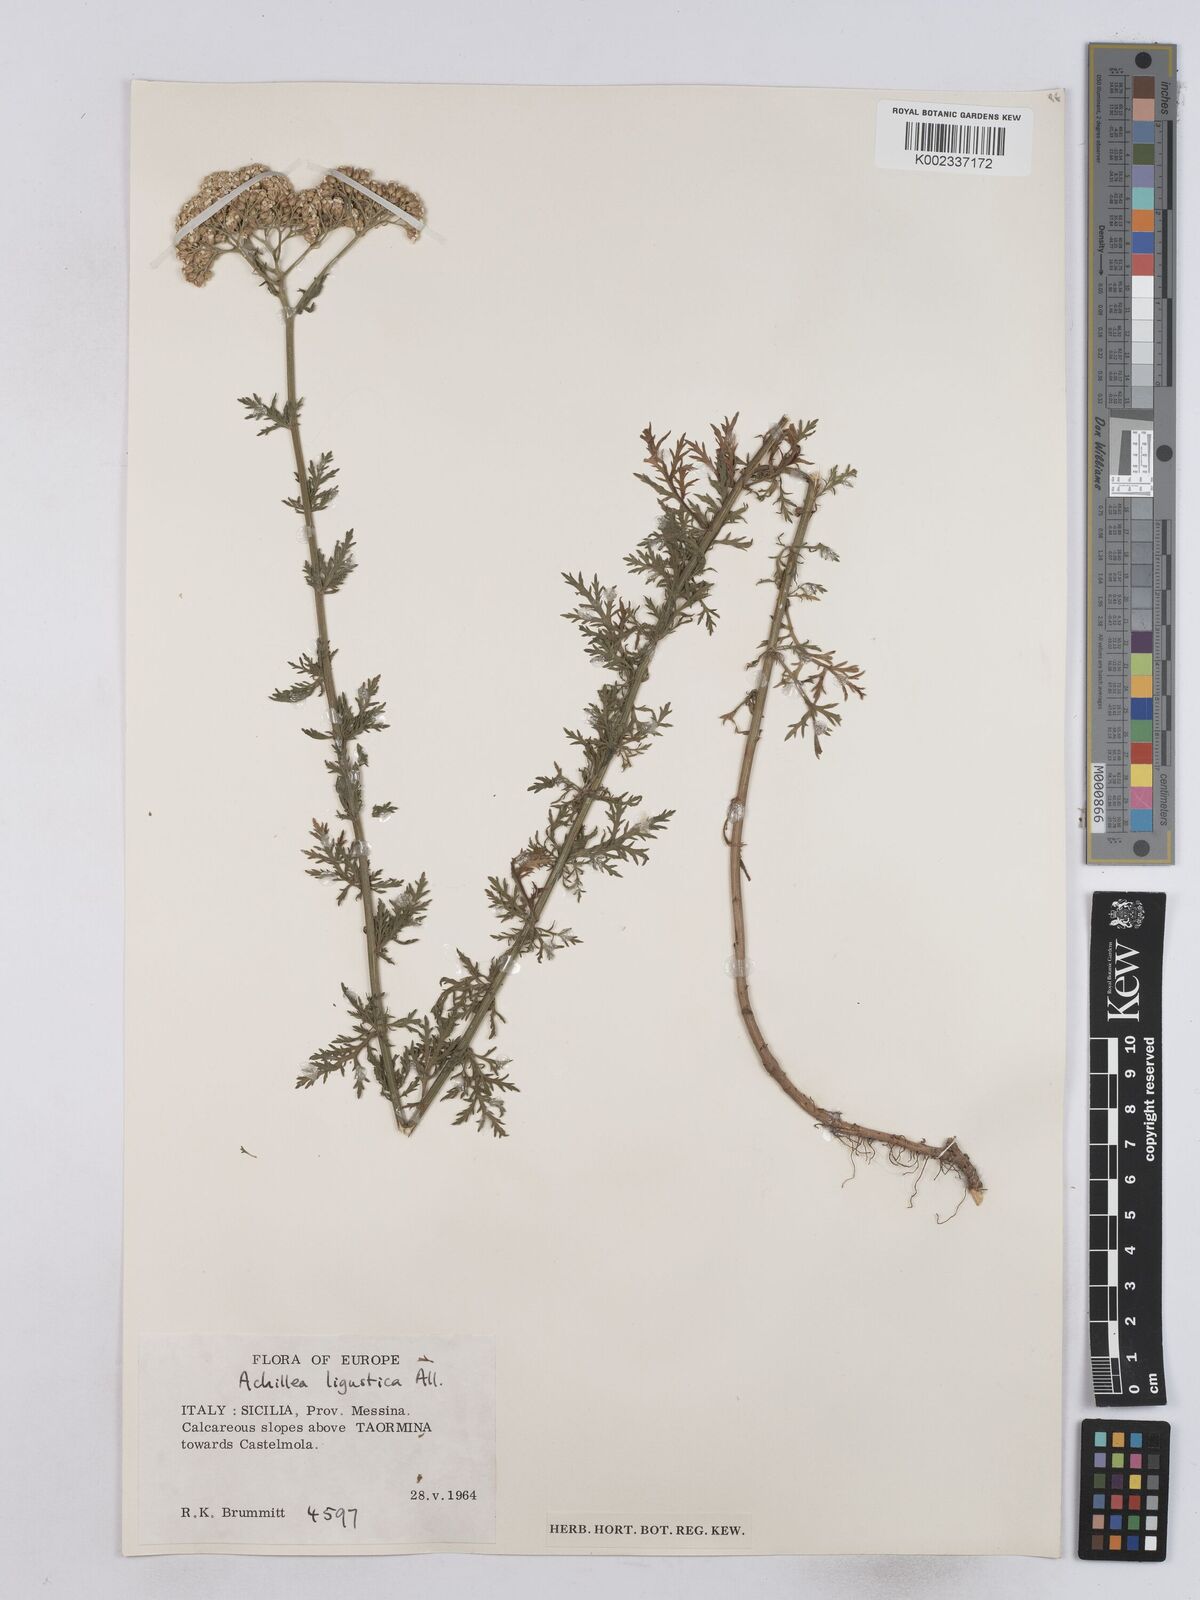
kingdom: Plantae
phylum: Tracheophyta
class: Magnoliopsida
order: Asterales
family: Asteraceae
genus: Achillea
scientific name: Achillea ligustica
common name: Southern yarrow
